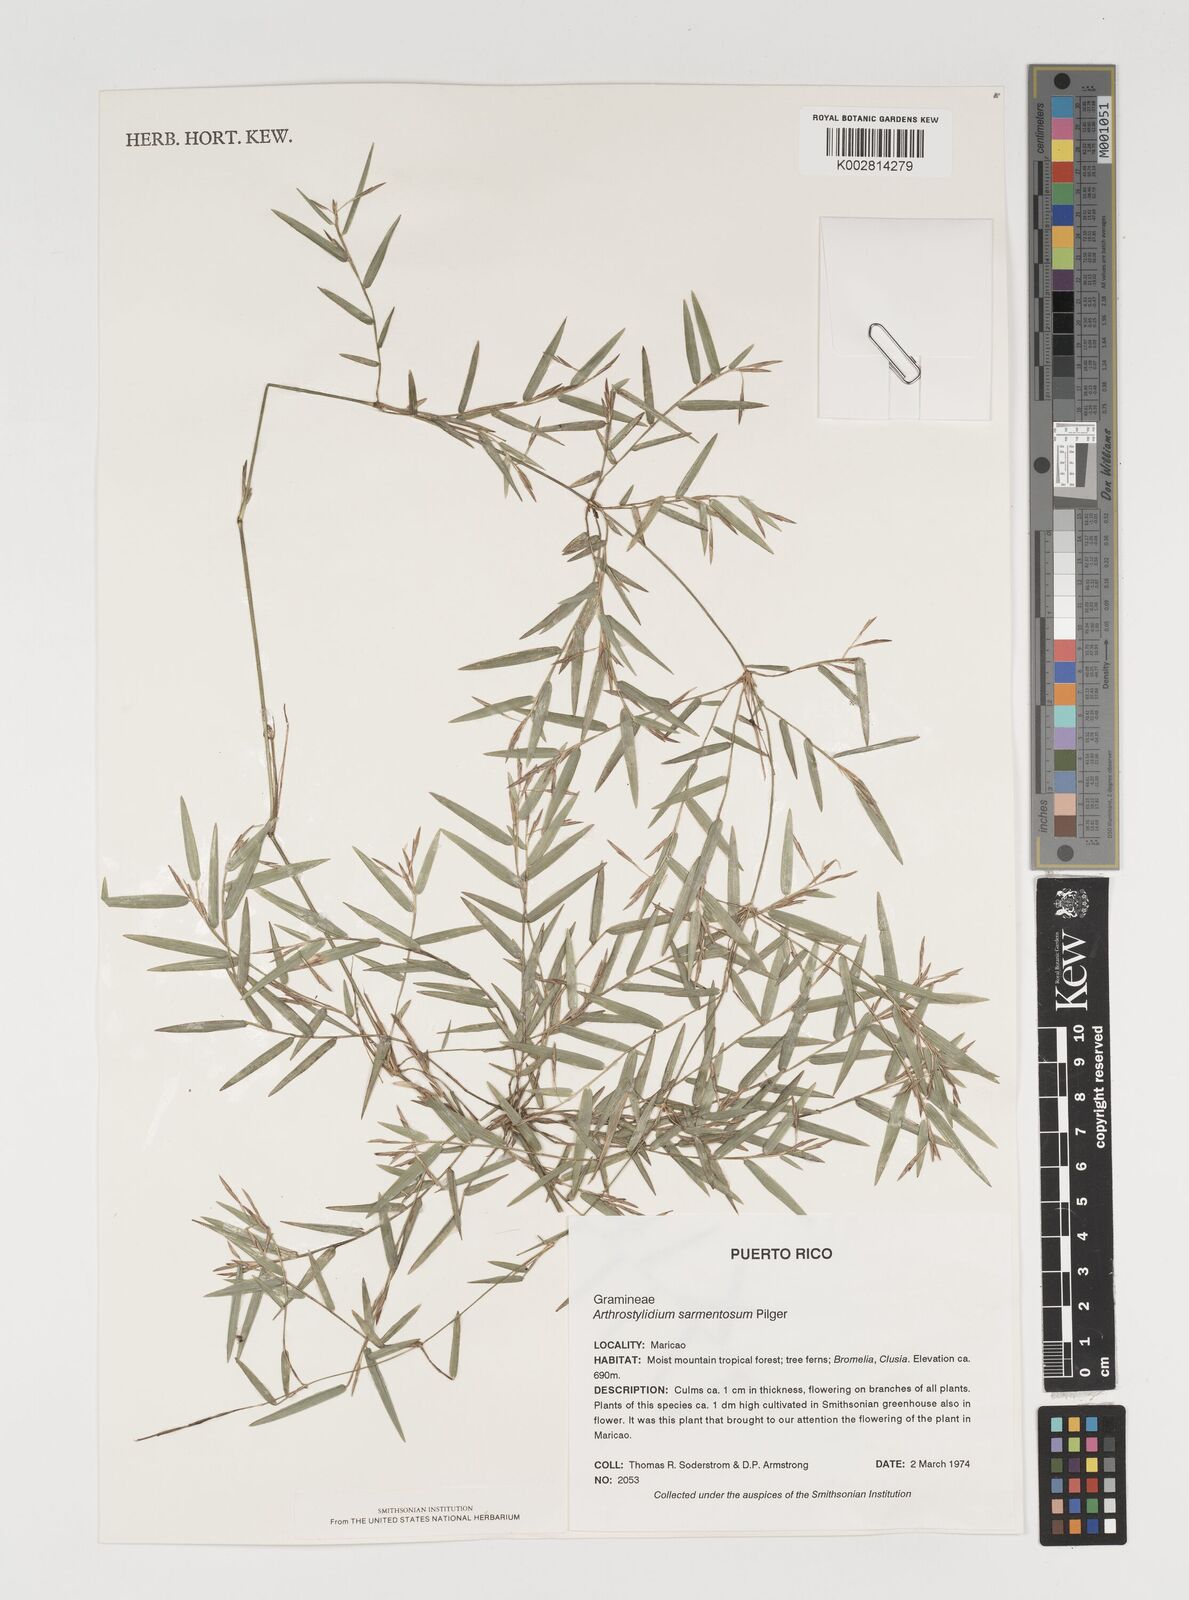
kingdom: Plantae
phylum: Tracheophyta
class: Liliopsida
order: Poales
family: Poaceae
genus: Arthrostylidium
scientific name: Arthrostylidium sarmentosum
